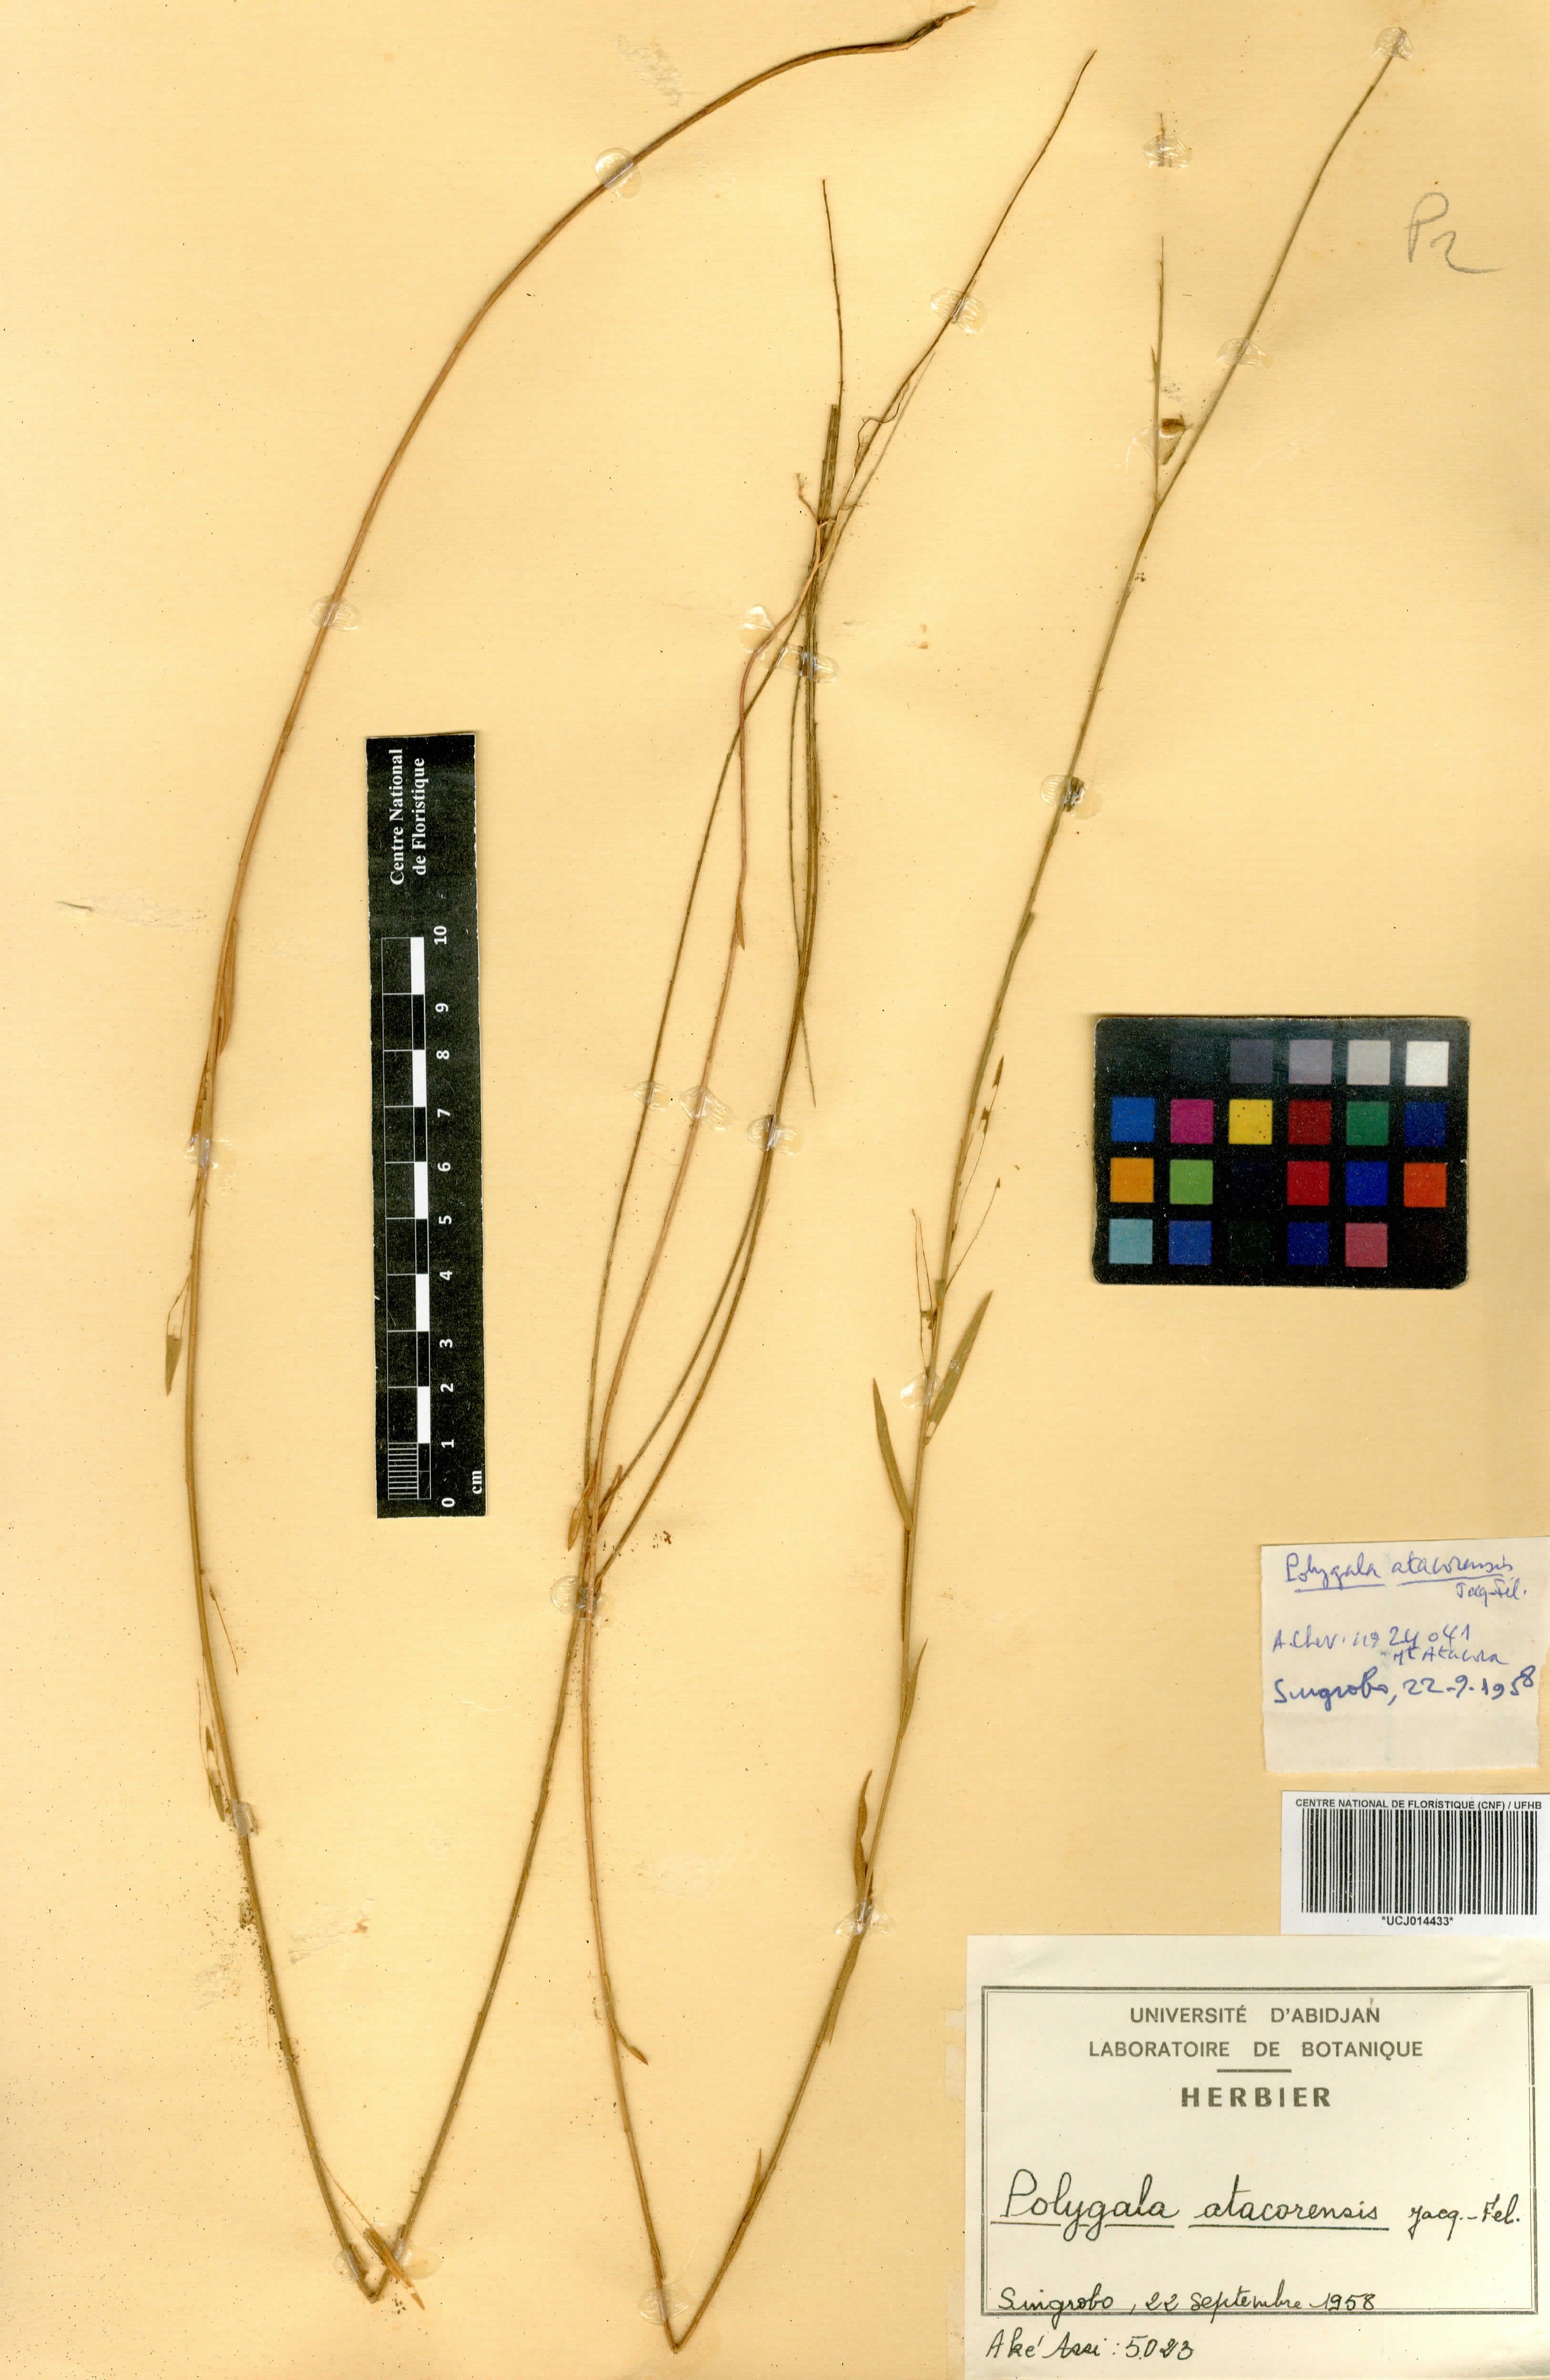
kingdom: Plantae
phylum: Tracheophyta
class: Magnoliopsida
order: Fabales
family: Polygalaceae
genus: Polygala
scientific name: Polygala atacorensis
